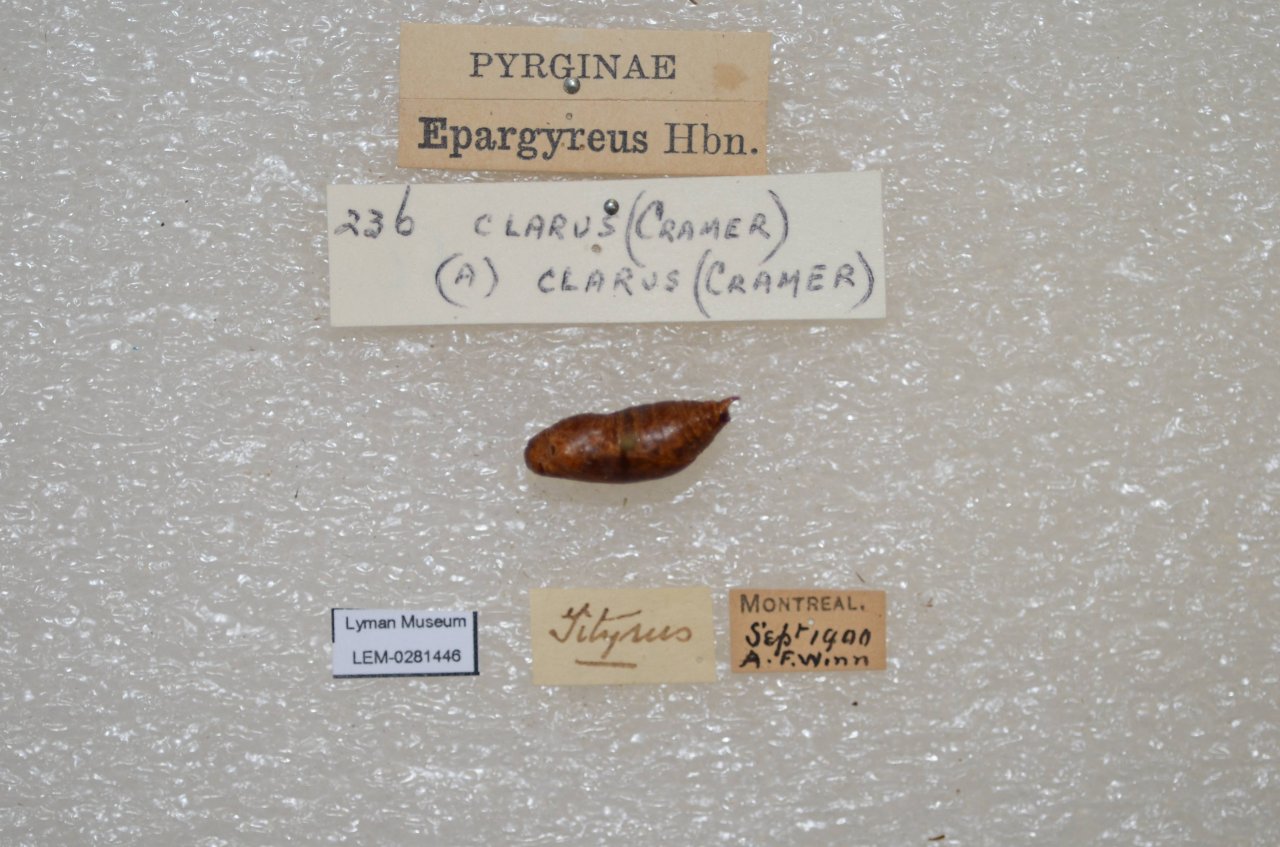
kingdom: Animalia
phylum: Arthropoda
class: Insecta
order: Lepidoptera
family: Hesperiidae
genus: Epargyreus
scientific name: Epargyreus clarus
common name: Silver-spotted Skipper
